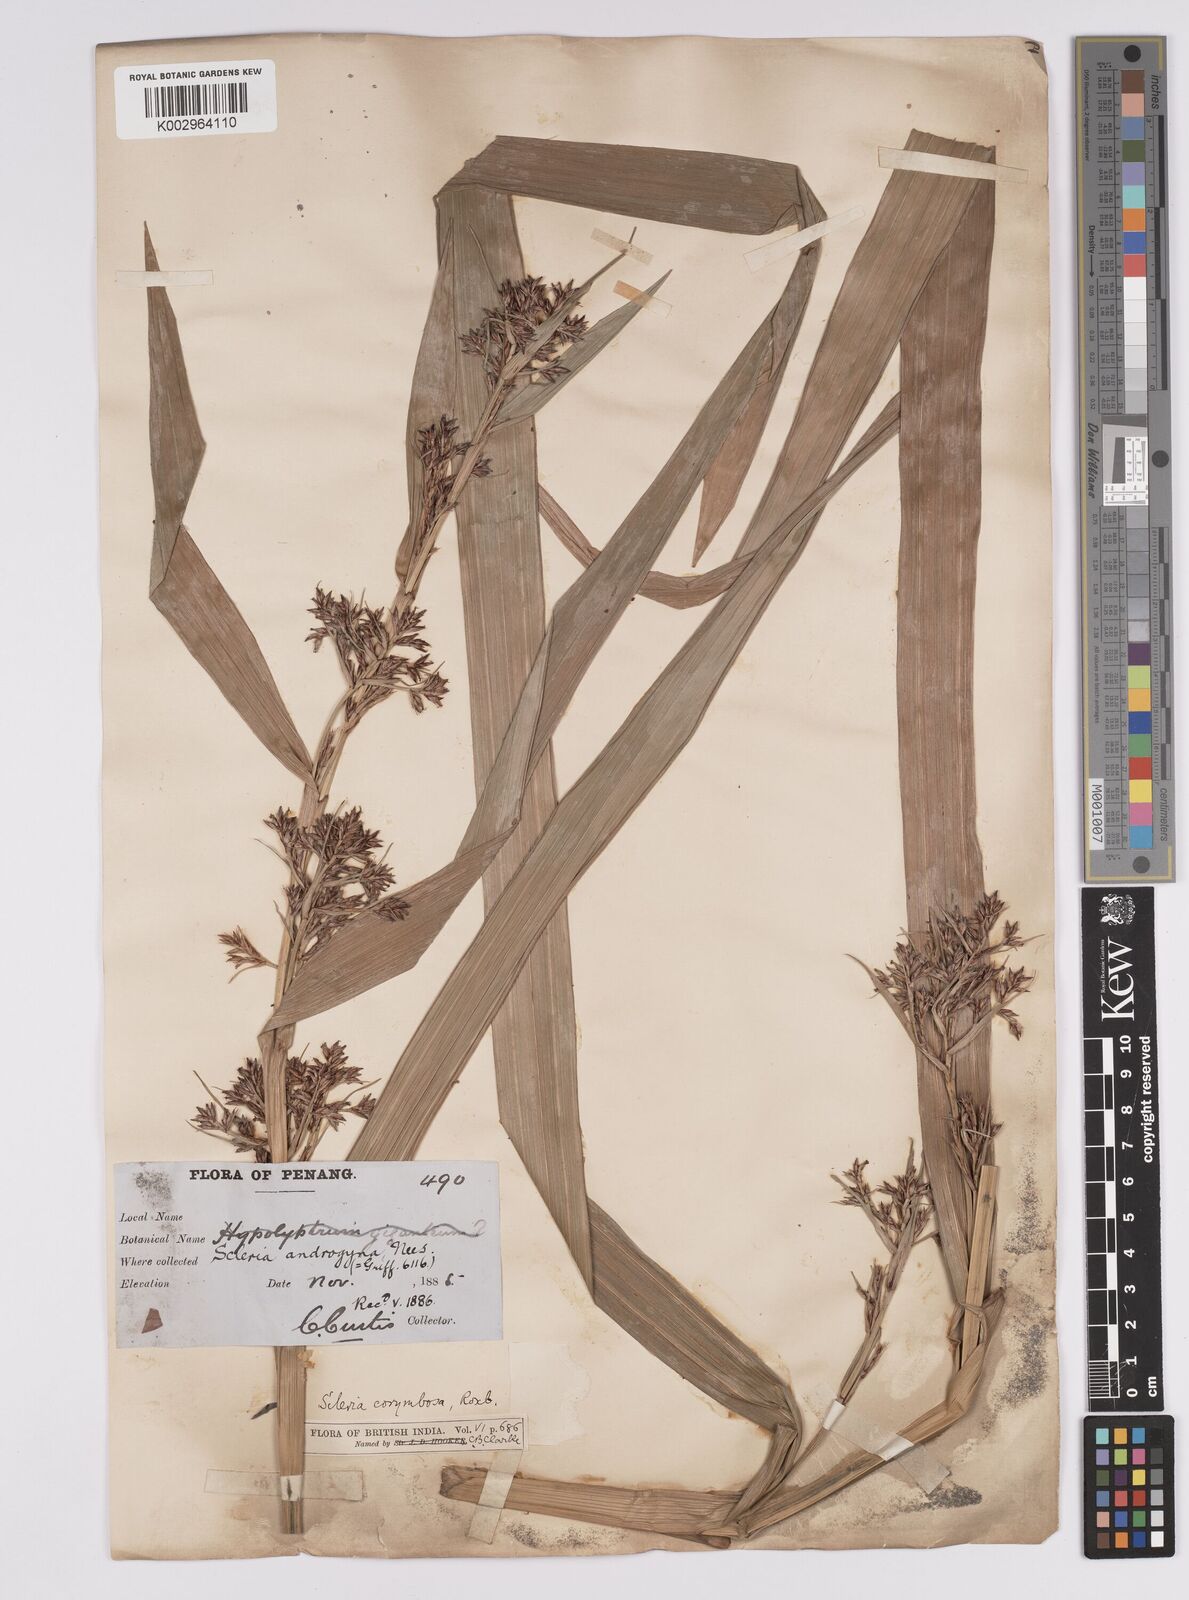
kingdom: Plantae
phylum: Tracheophyta
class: Liliopsida
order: Poales
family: Cyperaceae
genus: Scleria
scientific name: Scleria corymbosa
